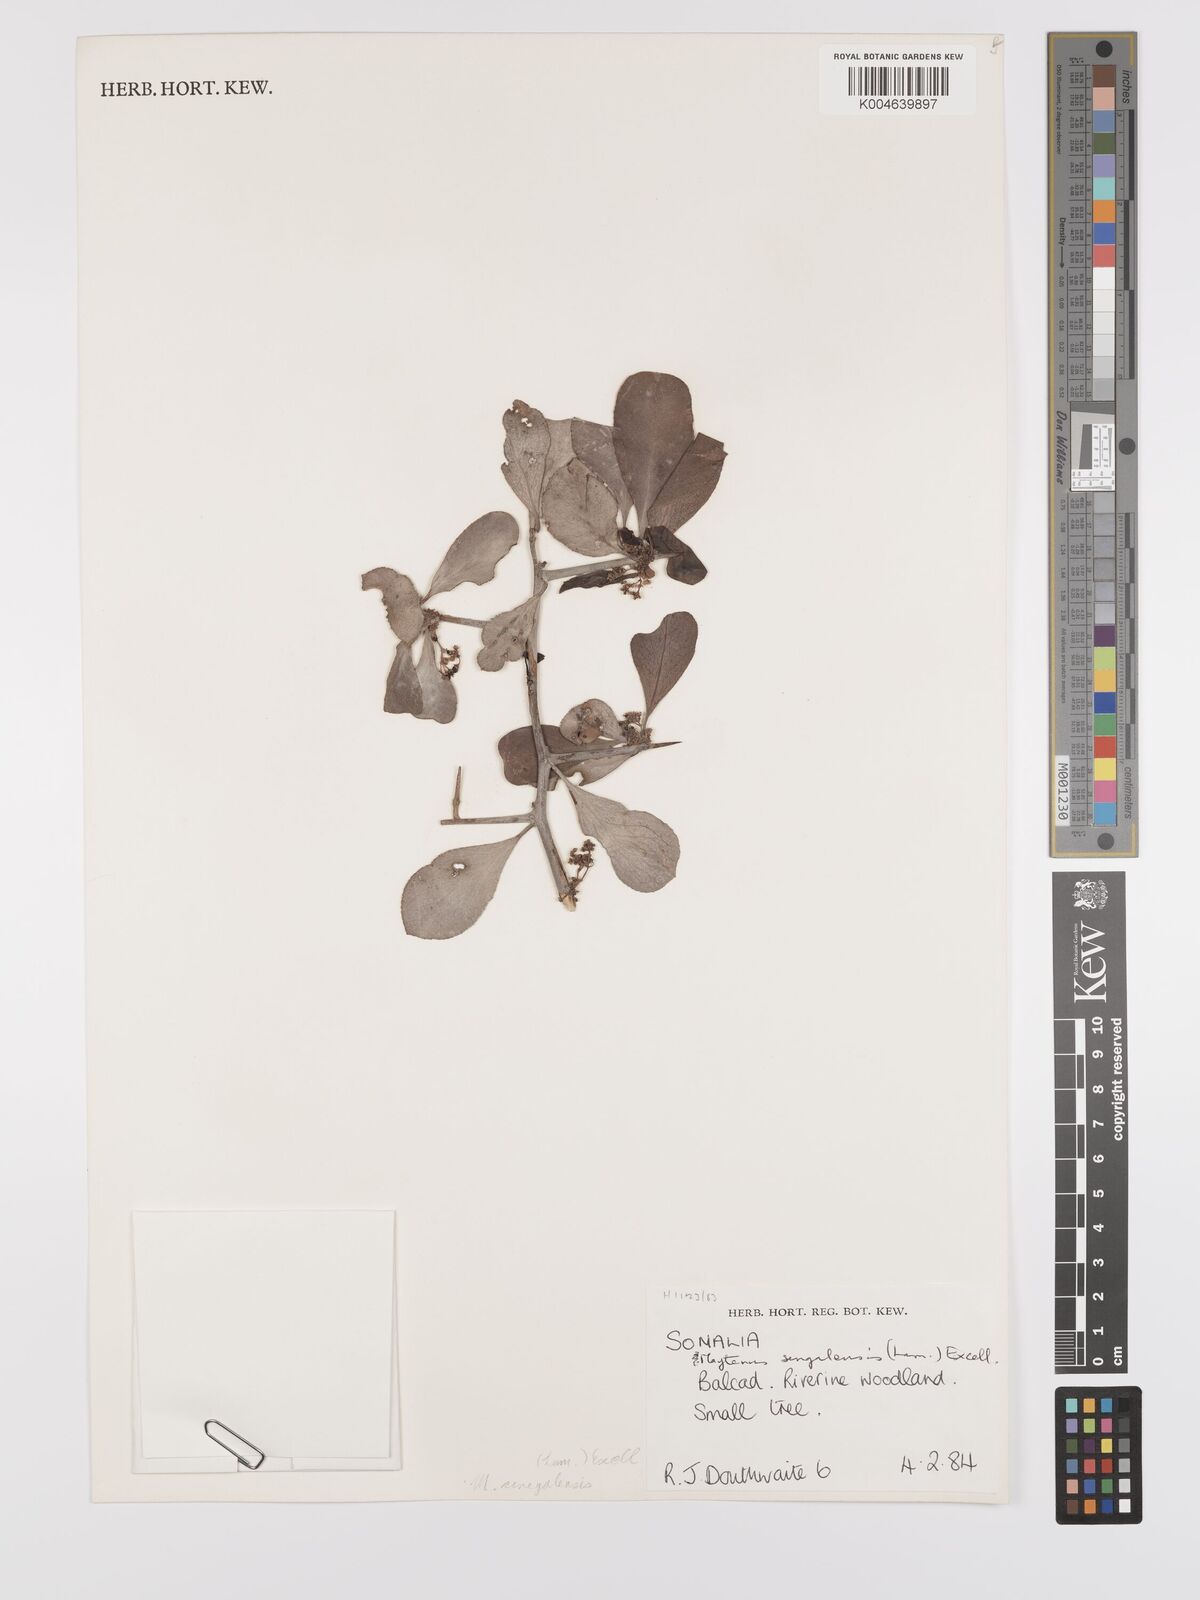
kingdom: Plantae
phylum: Tracheophyta
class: Magnoliopsida
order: Celastrales
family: Celastraceae
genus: Gymnosporia
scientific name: Gymnosporia senegalensis
